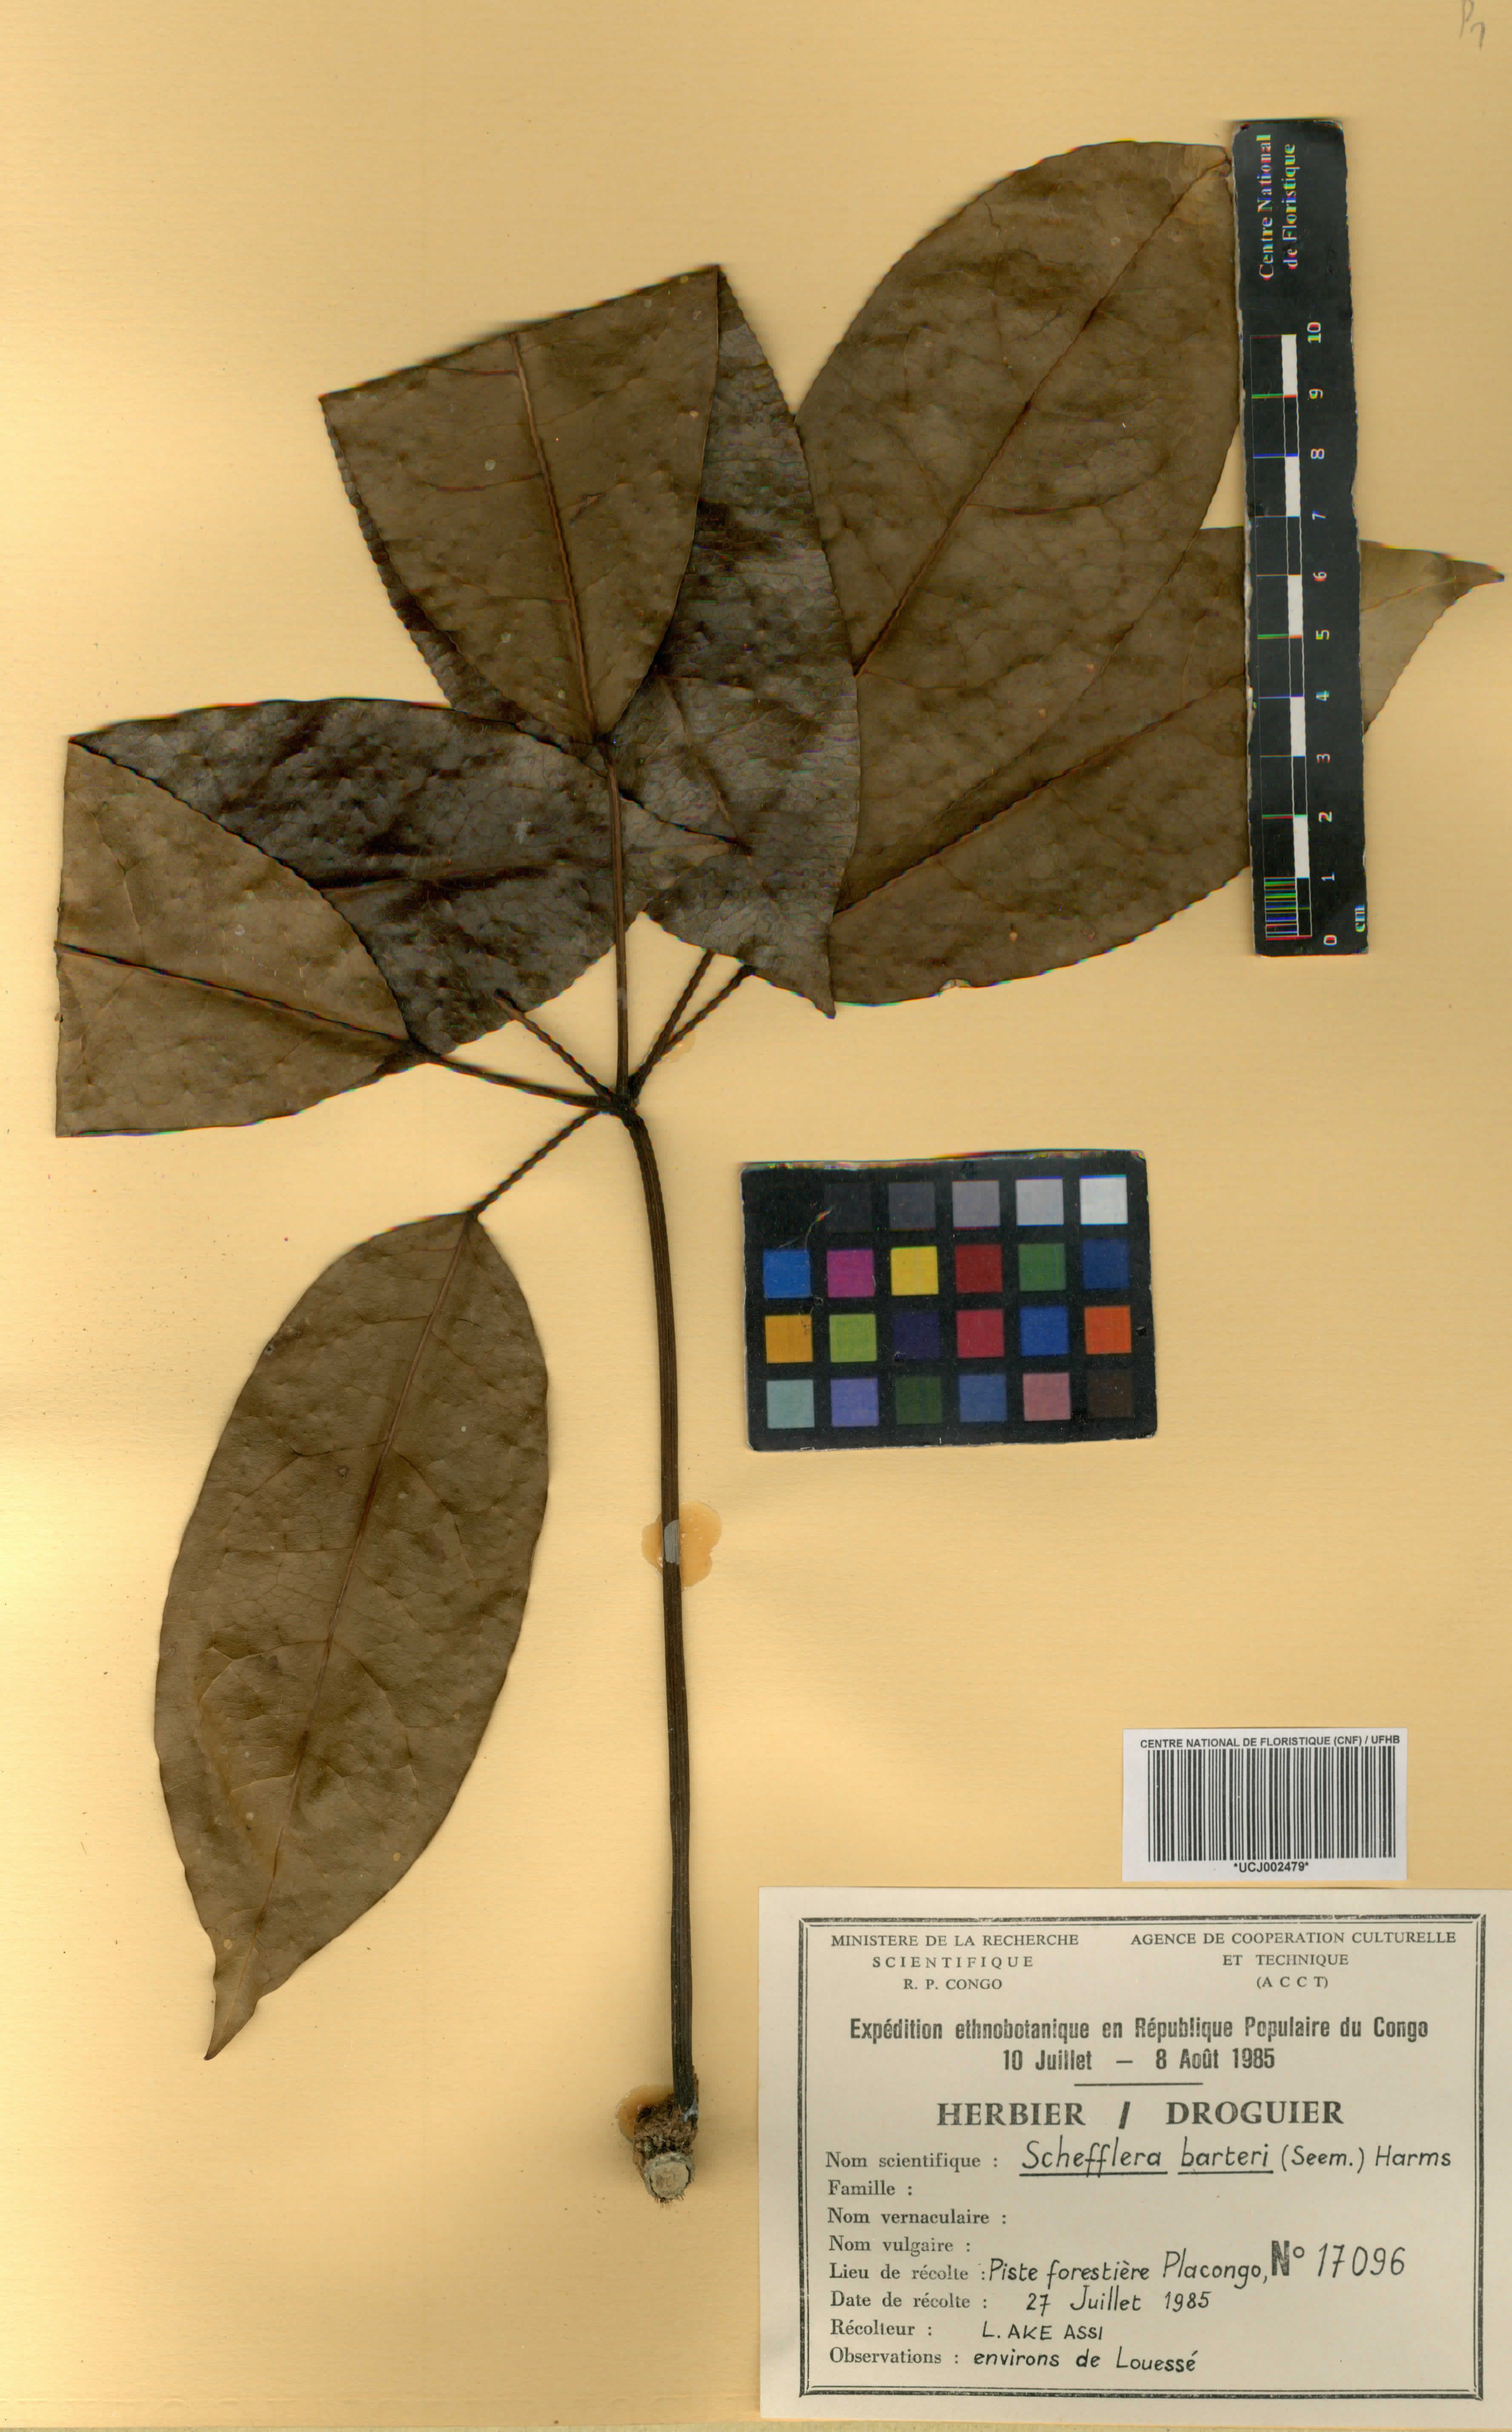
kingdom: Plantae
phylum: Tracheophyta
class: Magnoliopsida
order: Apiales
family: Araliaceae
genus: Astropanax
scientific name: Astropanax barteri
